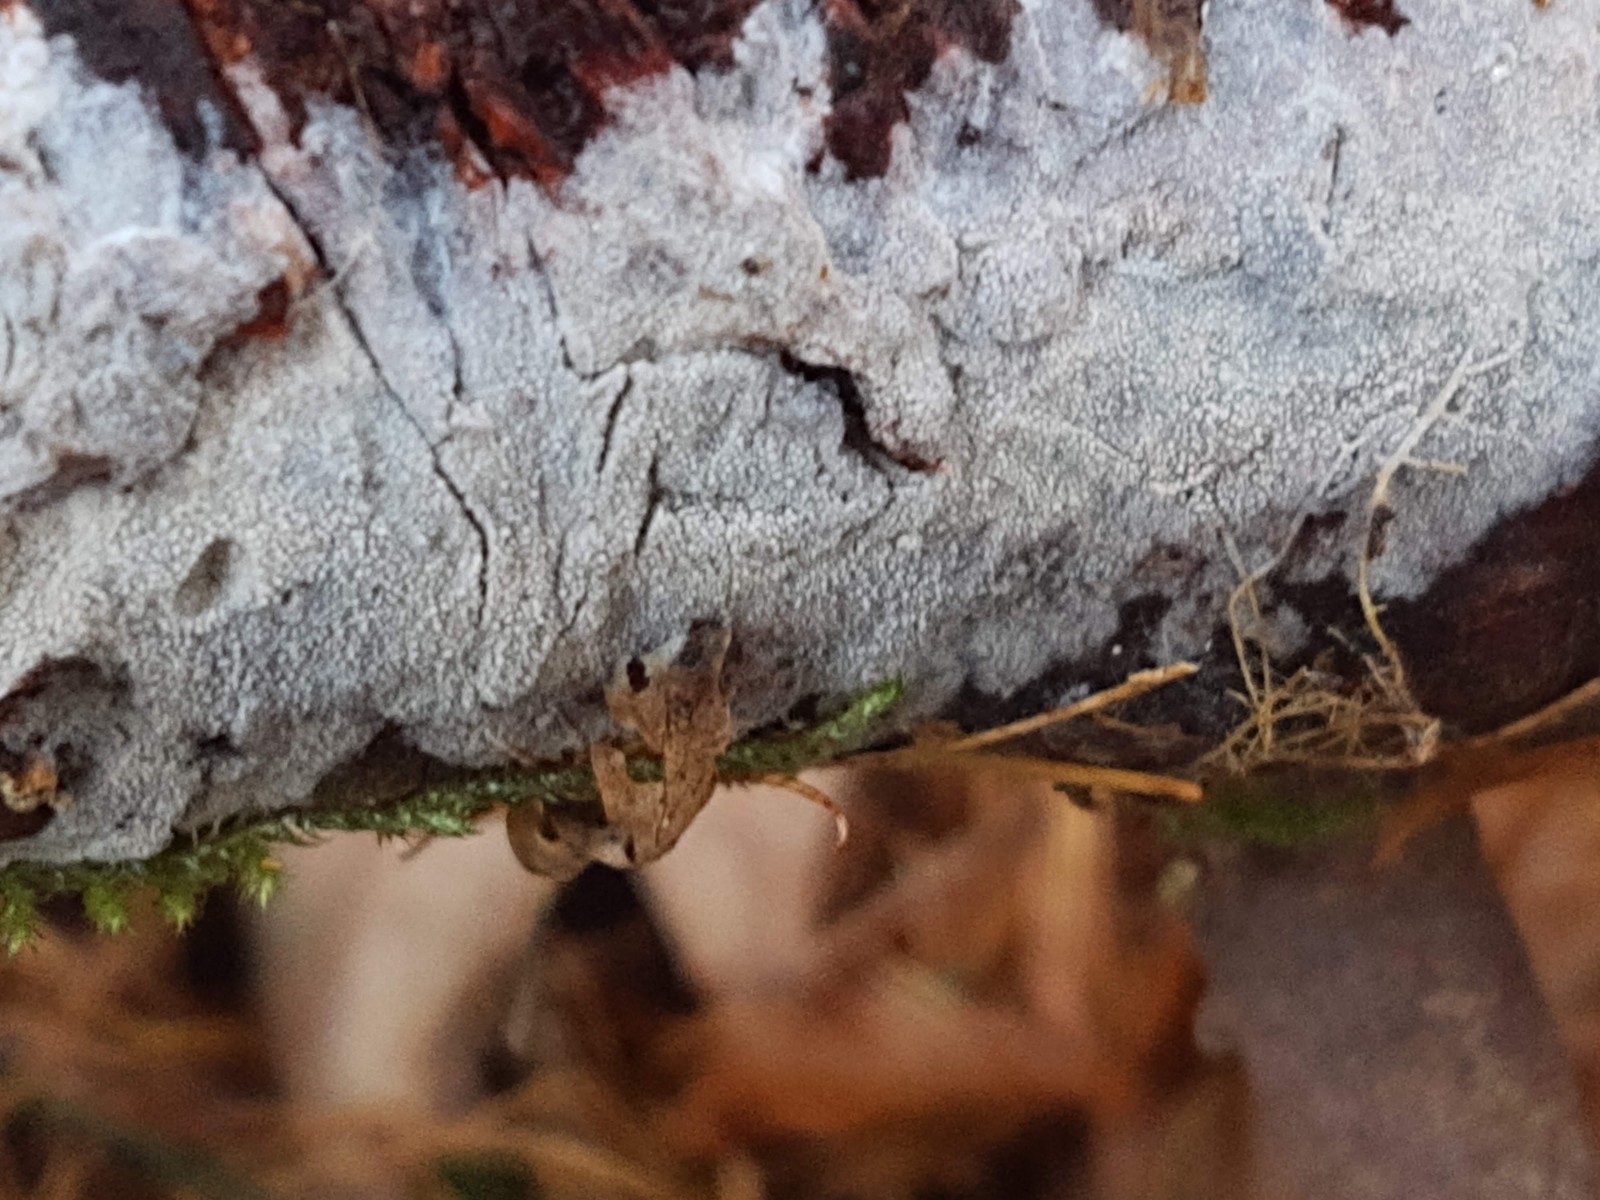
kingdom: Fungi
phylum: Basidiomycota
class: Agaricomycetes
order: Hymenochaetales
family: Rickenellaceae
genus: Resinicium
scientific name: Resinicium bicolor
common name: almindelig vokstand
